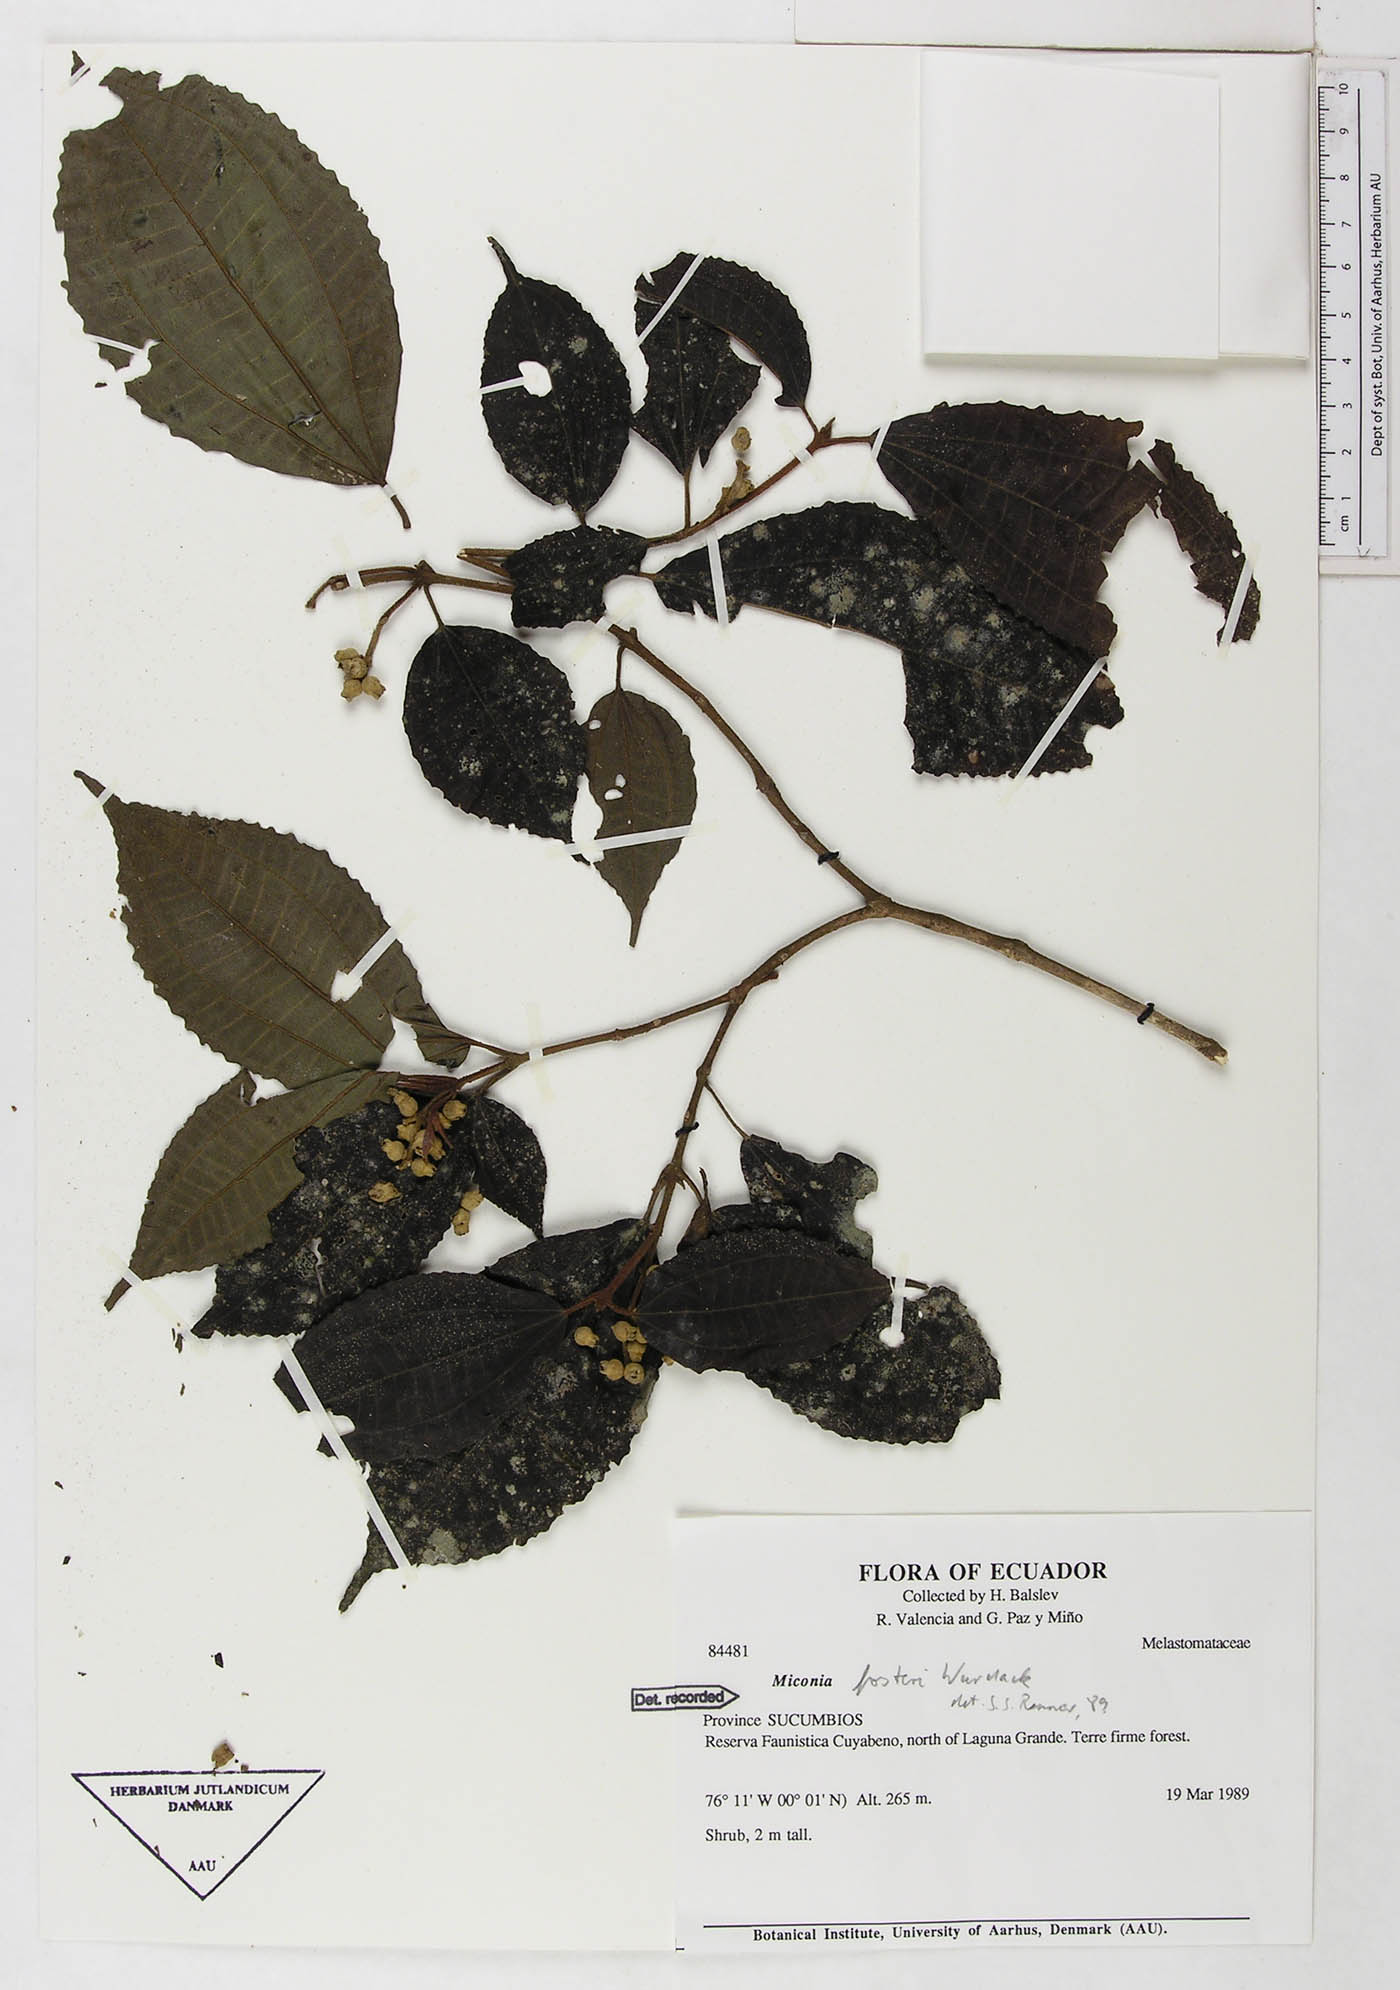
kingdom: Plantae
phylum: Tracheophyta
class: Magnoliopsida
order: Myrtales
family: Melastomataceae
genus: Miconia
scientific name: Miconia fosteri
